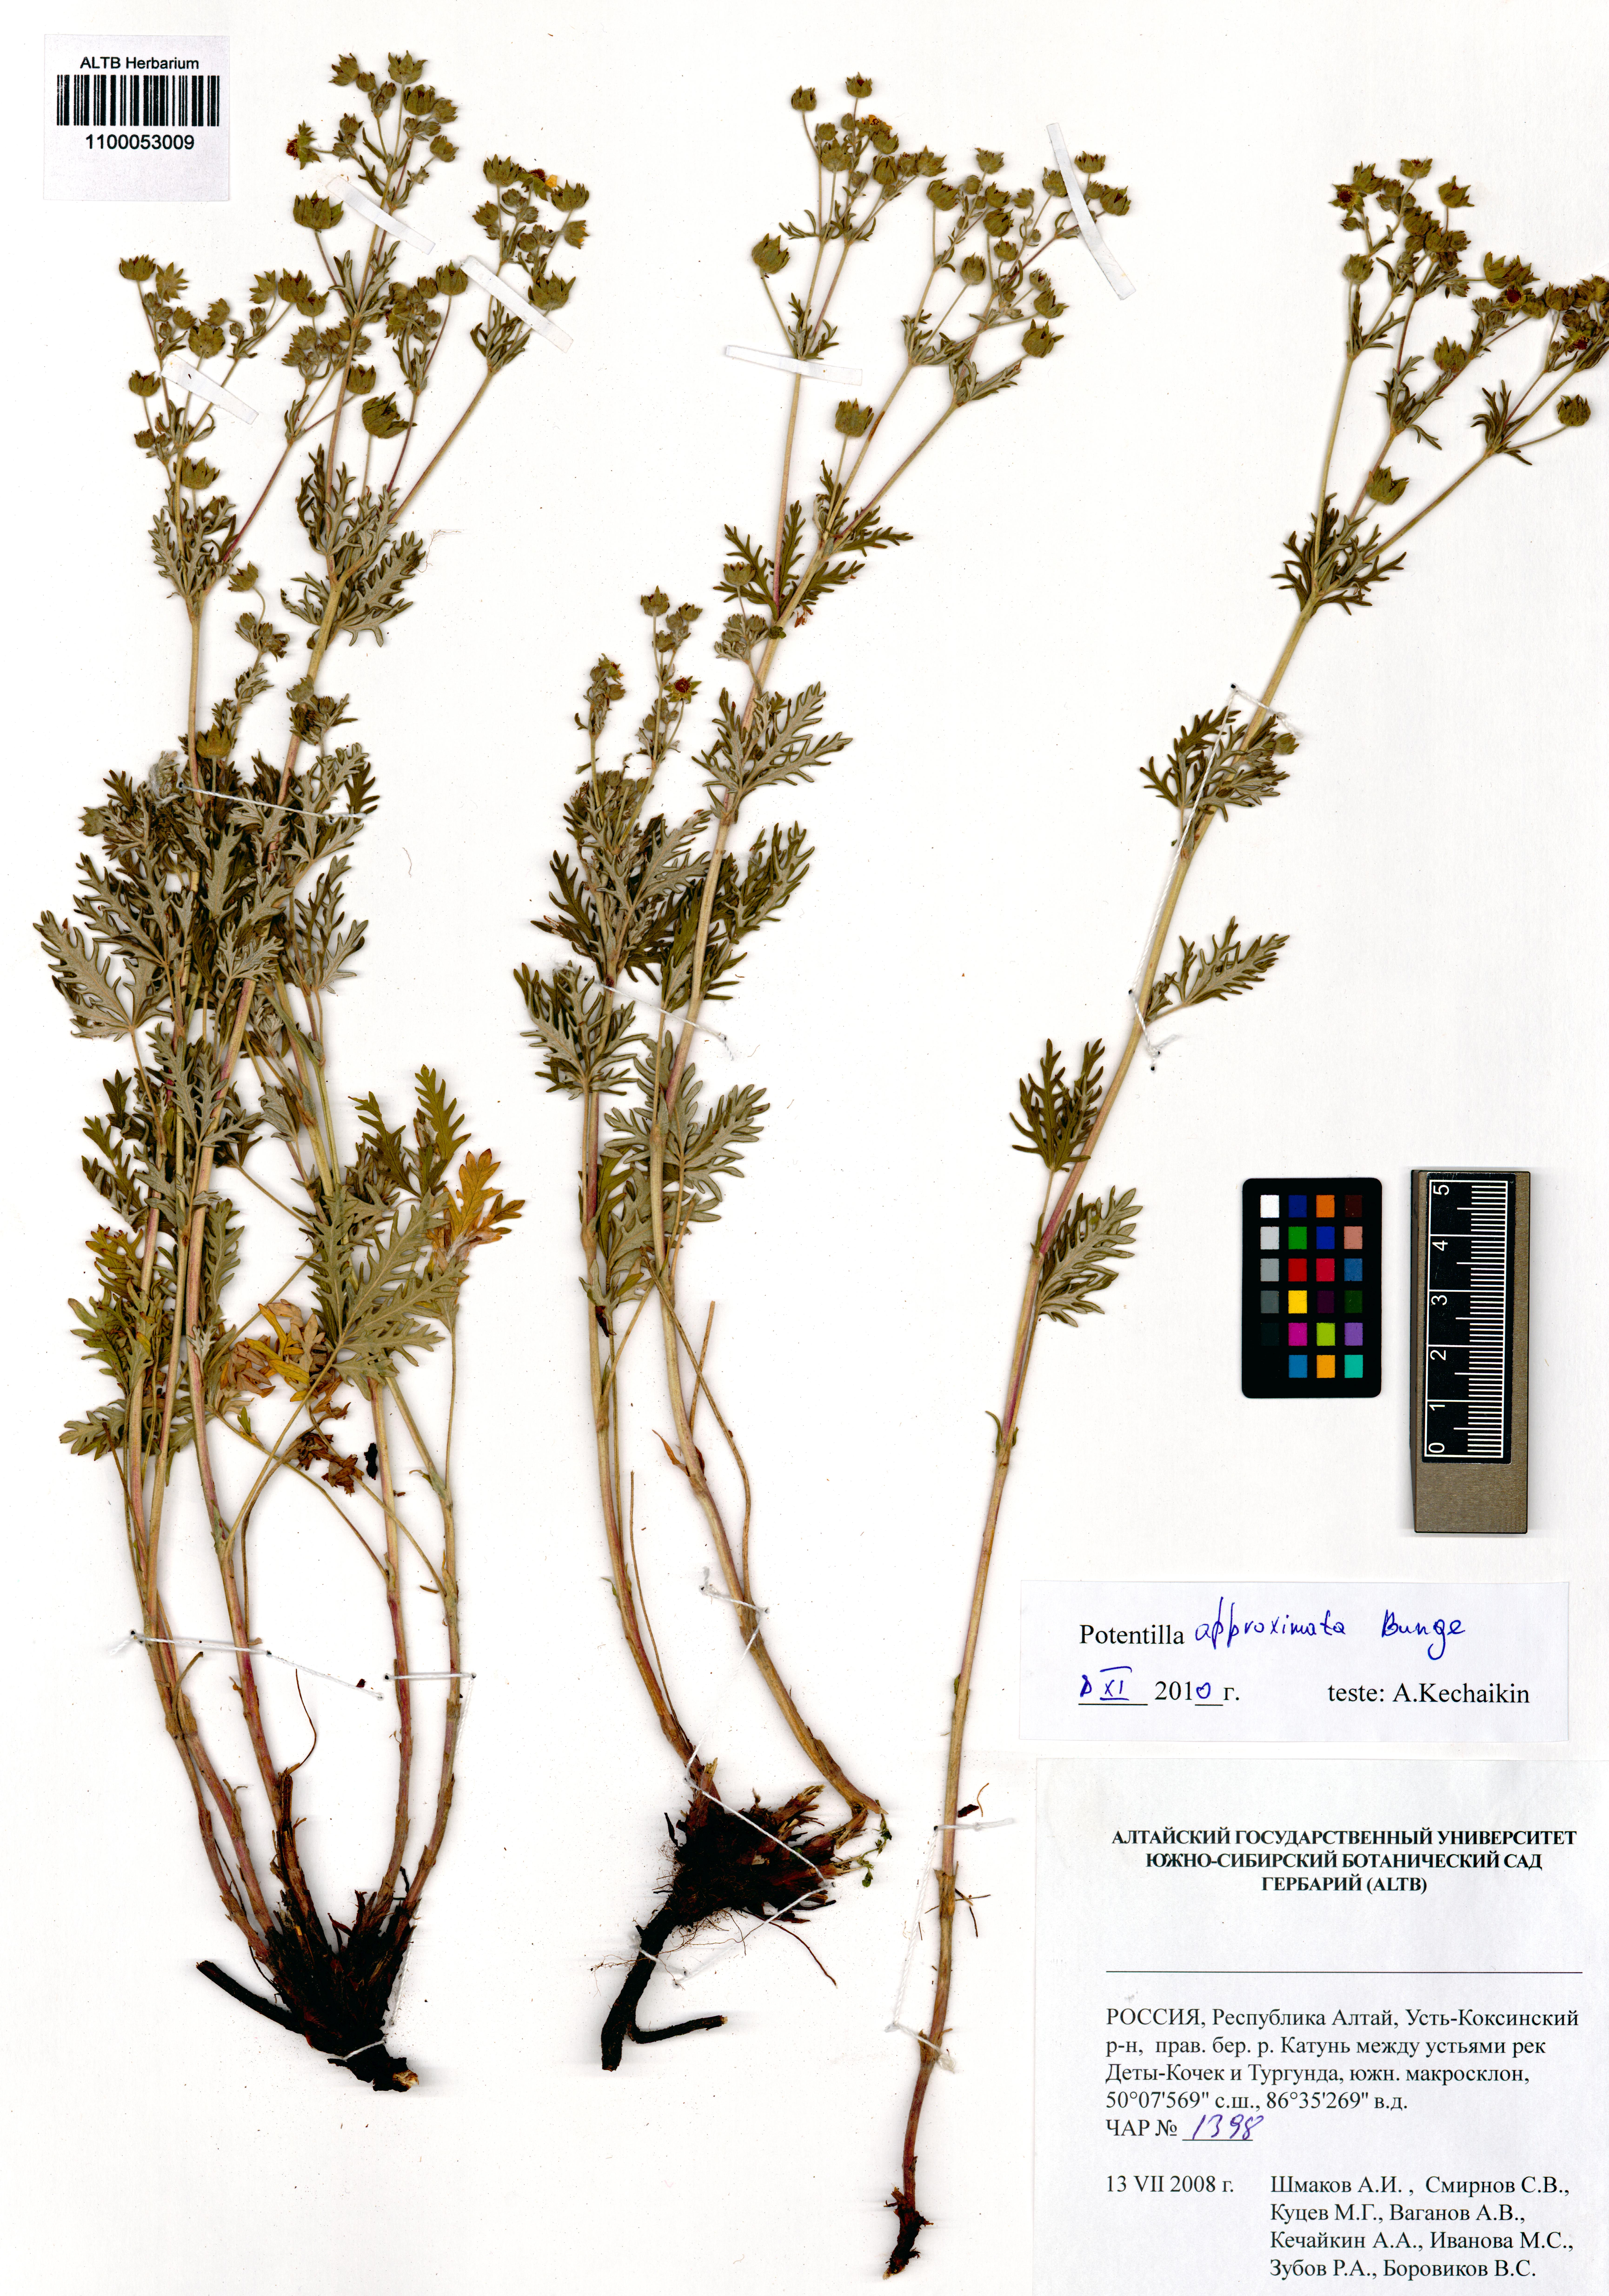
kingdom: Plantae
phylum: Tracheophyta
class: Magnoliopsida
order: Rosales
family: Rosaceae
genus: Potentilla
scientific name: Potentilla conferta
